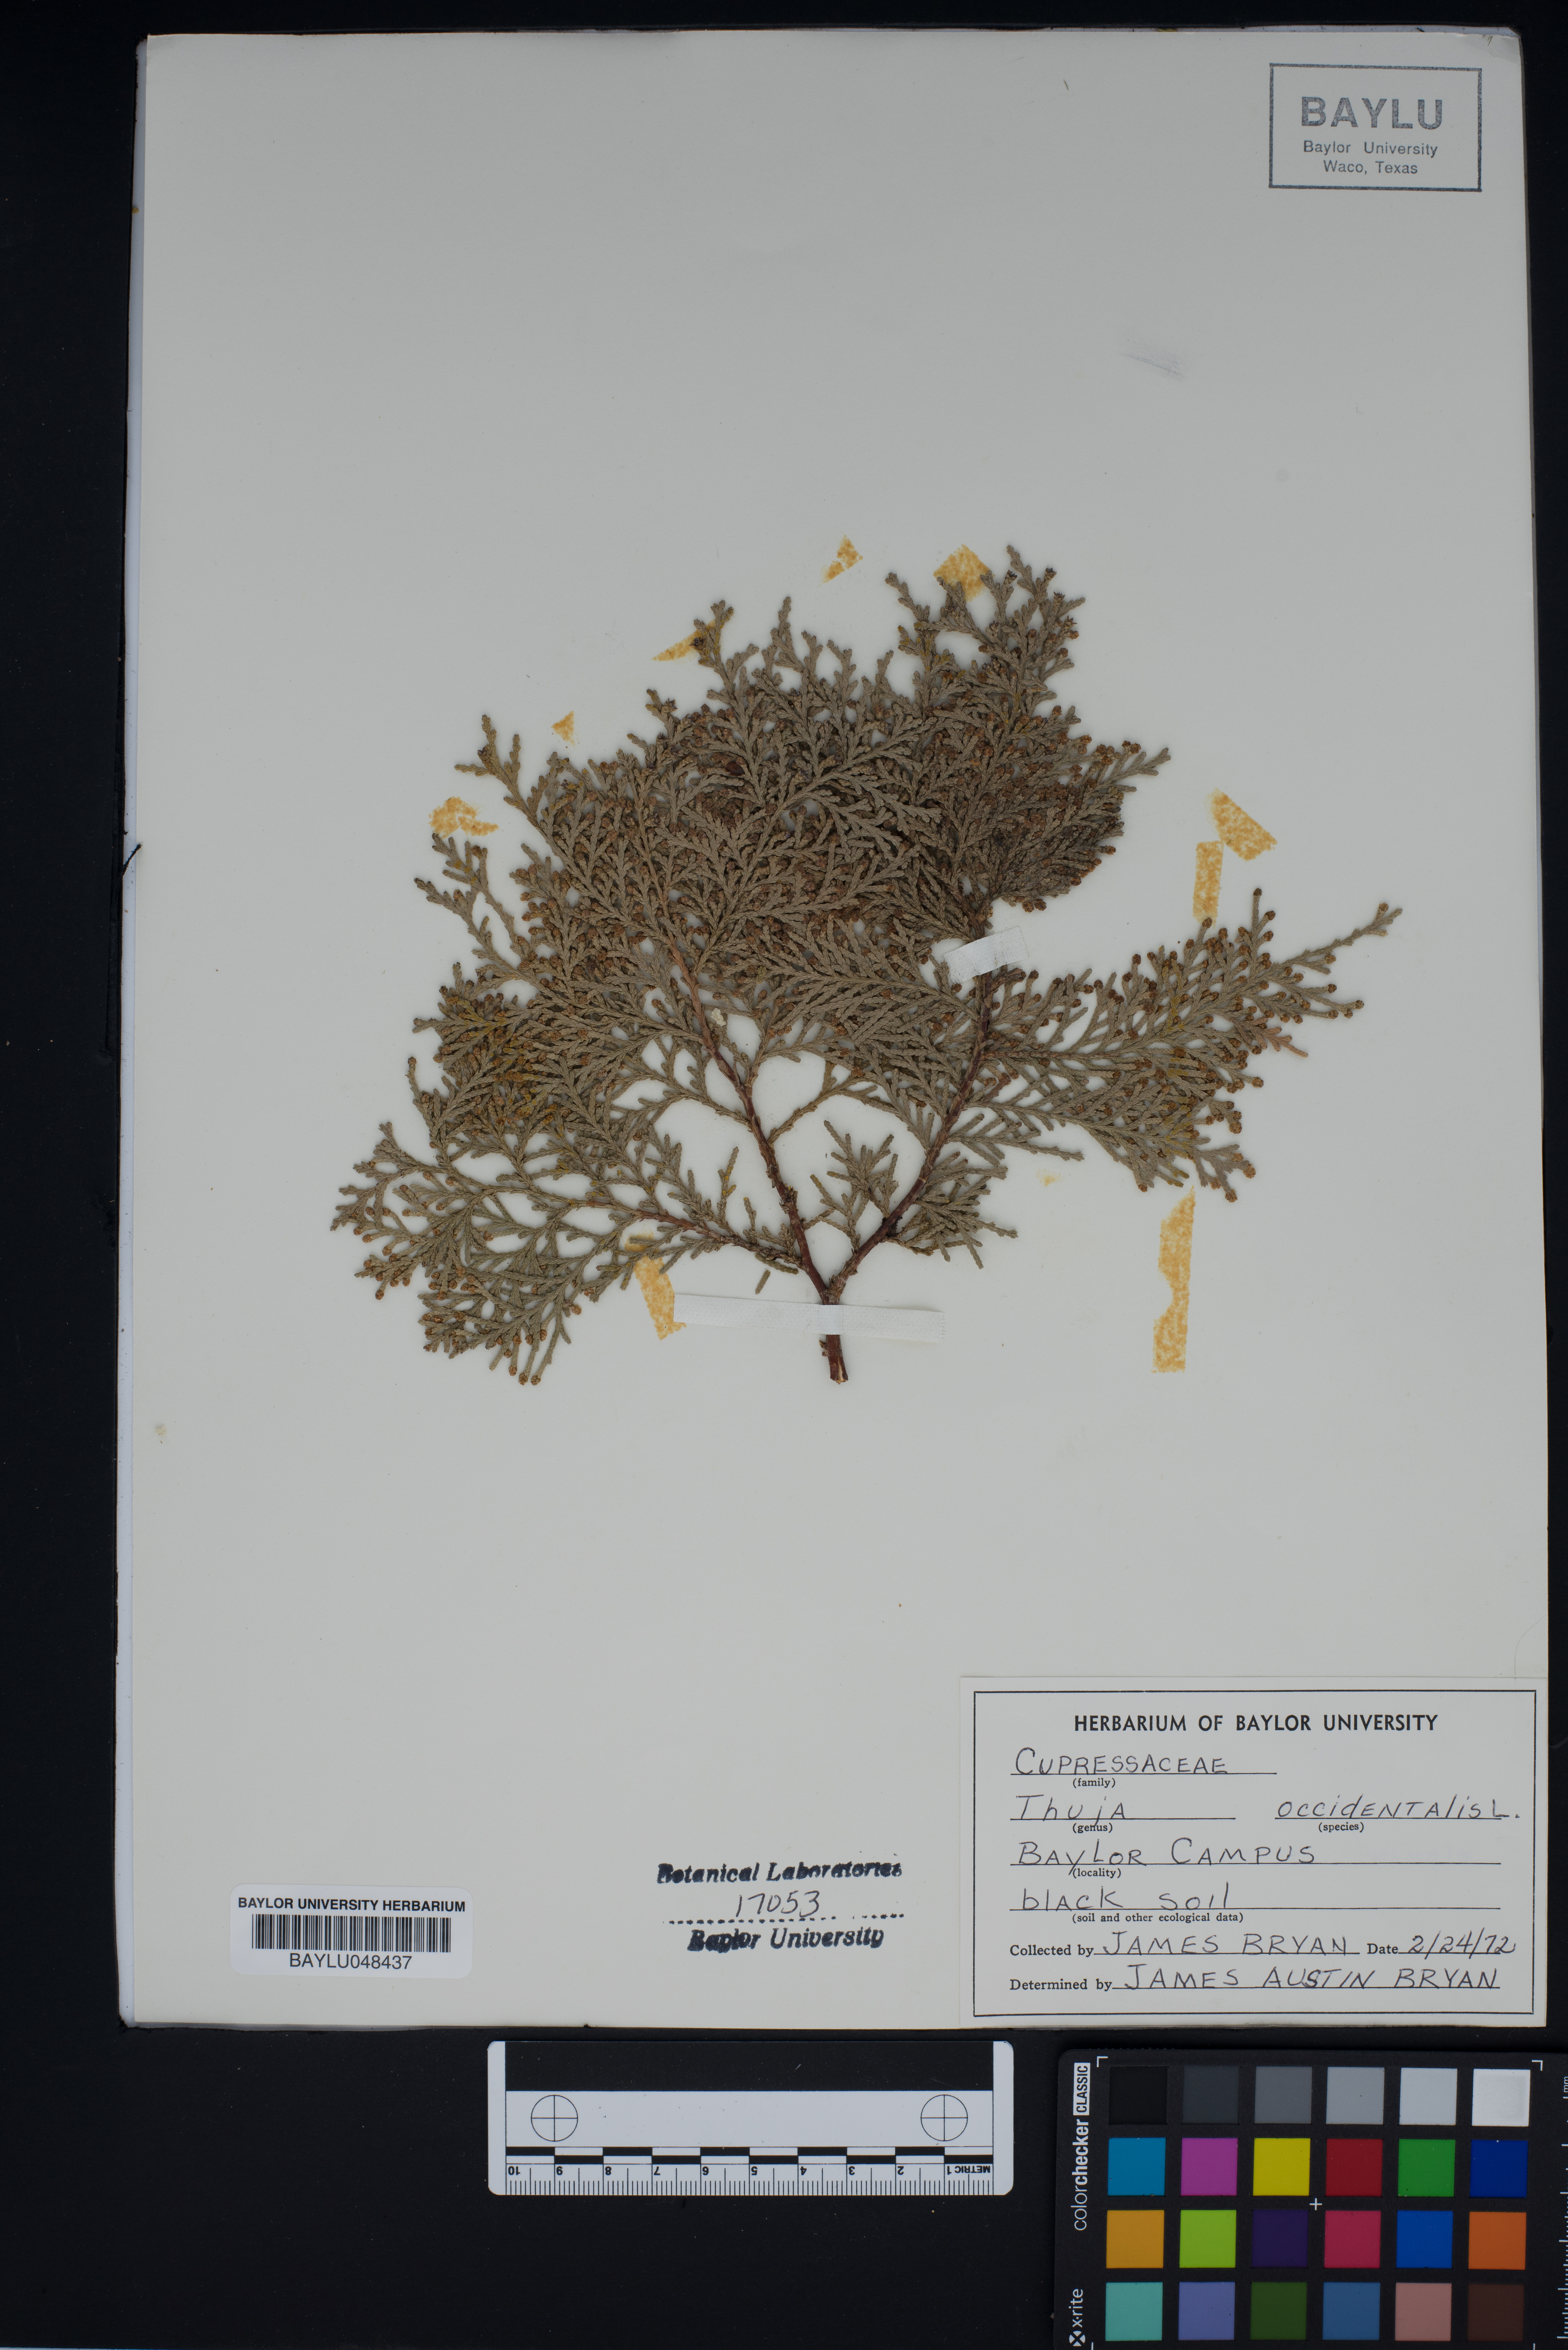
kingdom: Plantae
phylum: Tracheophyta
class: Pinopsida
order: Pinales
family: Cupressaceae
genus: Thuja
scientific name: Thuja occidentalis
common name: Northern white-cedar
